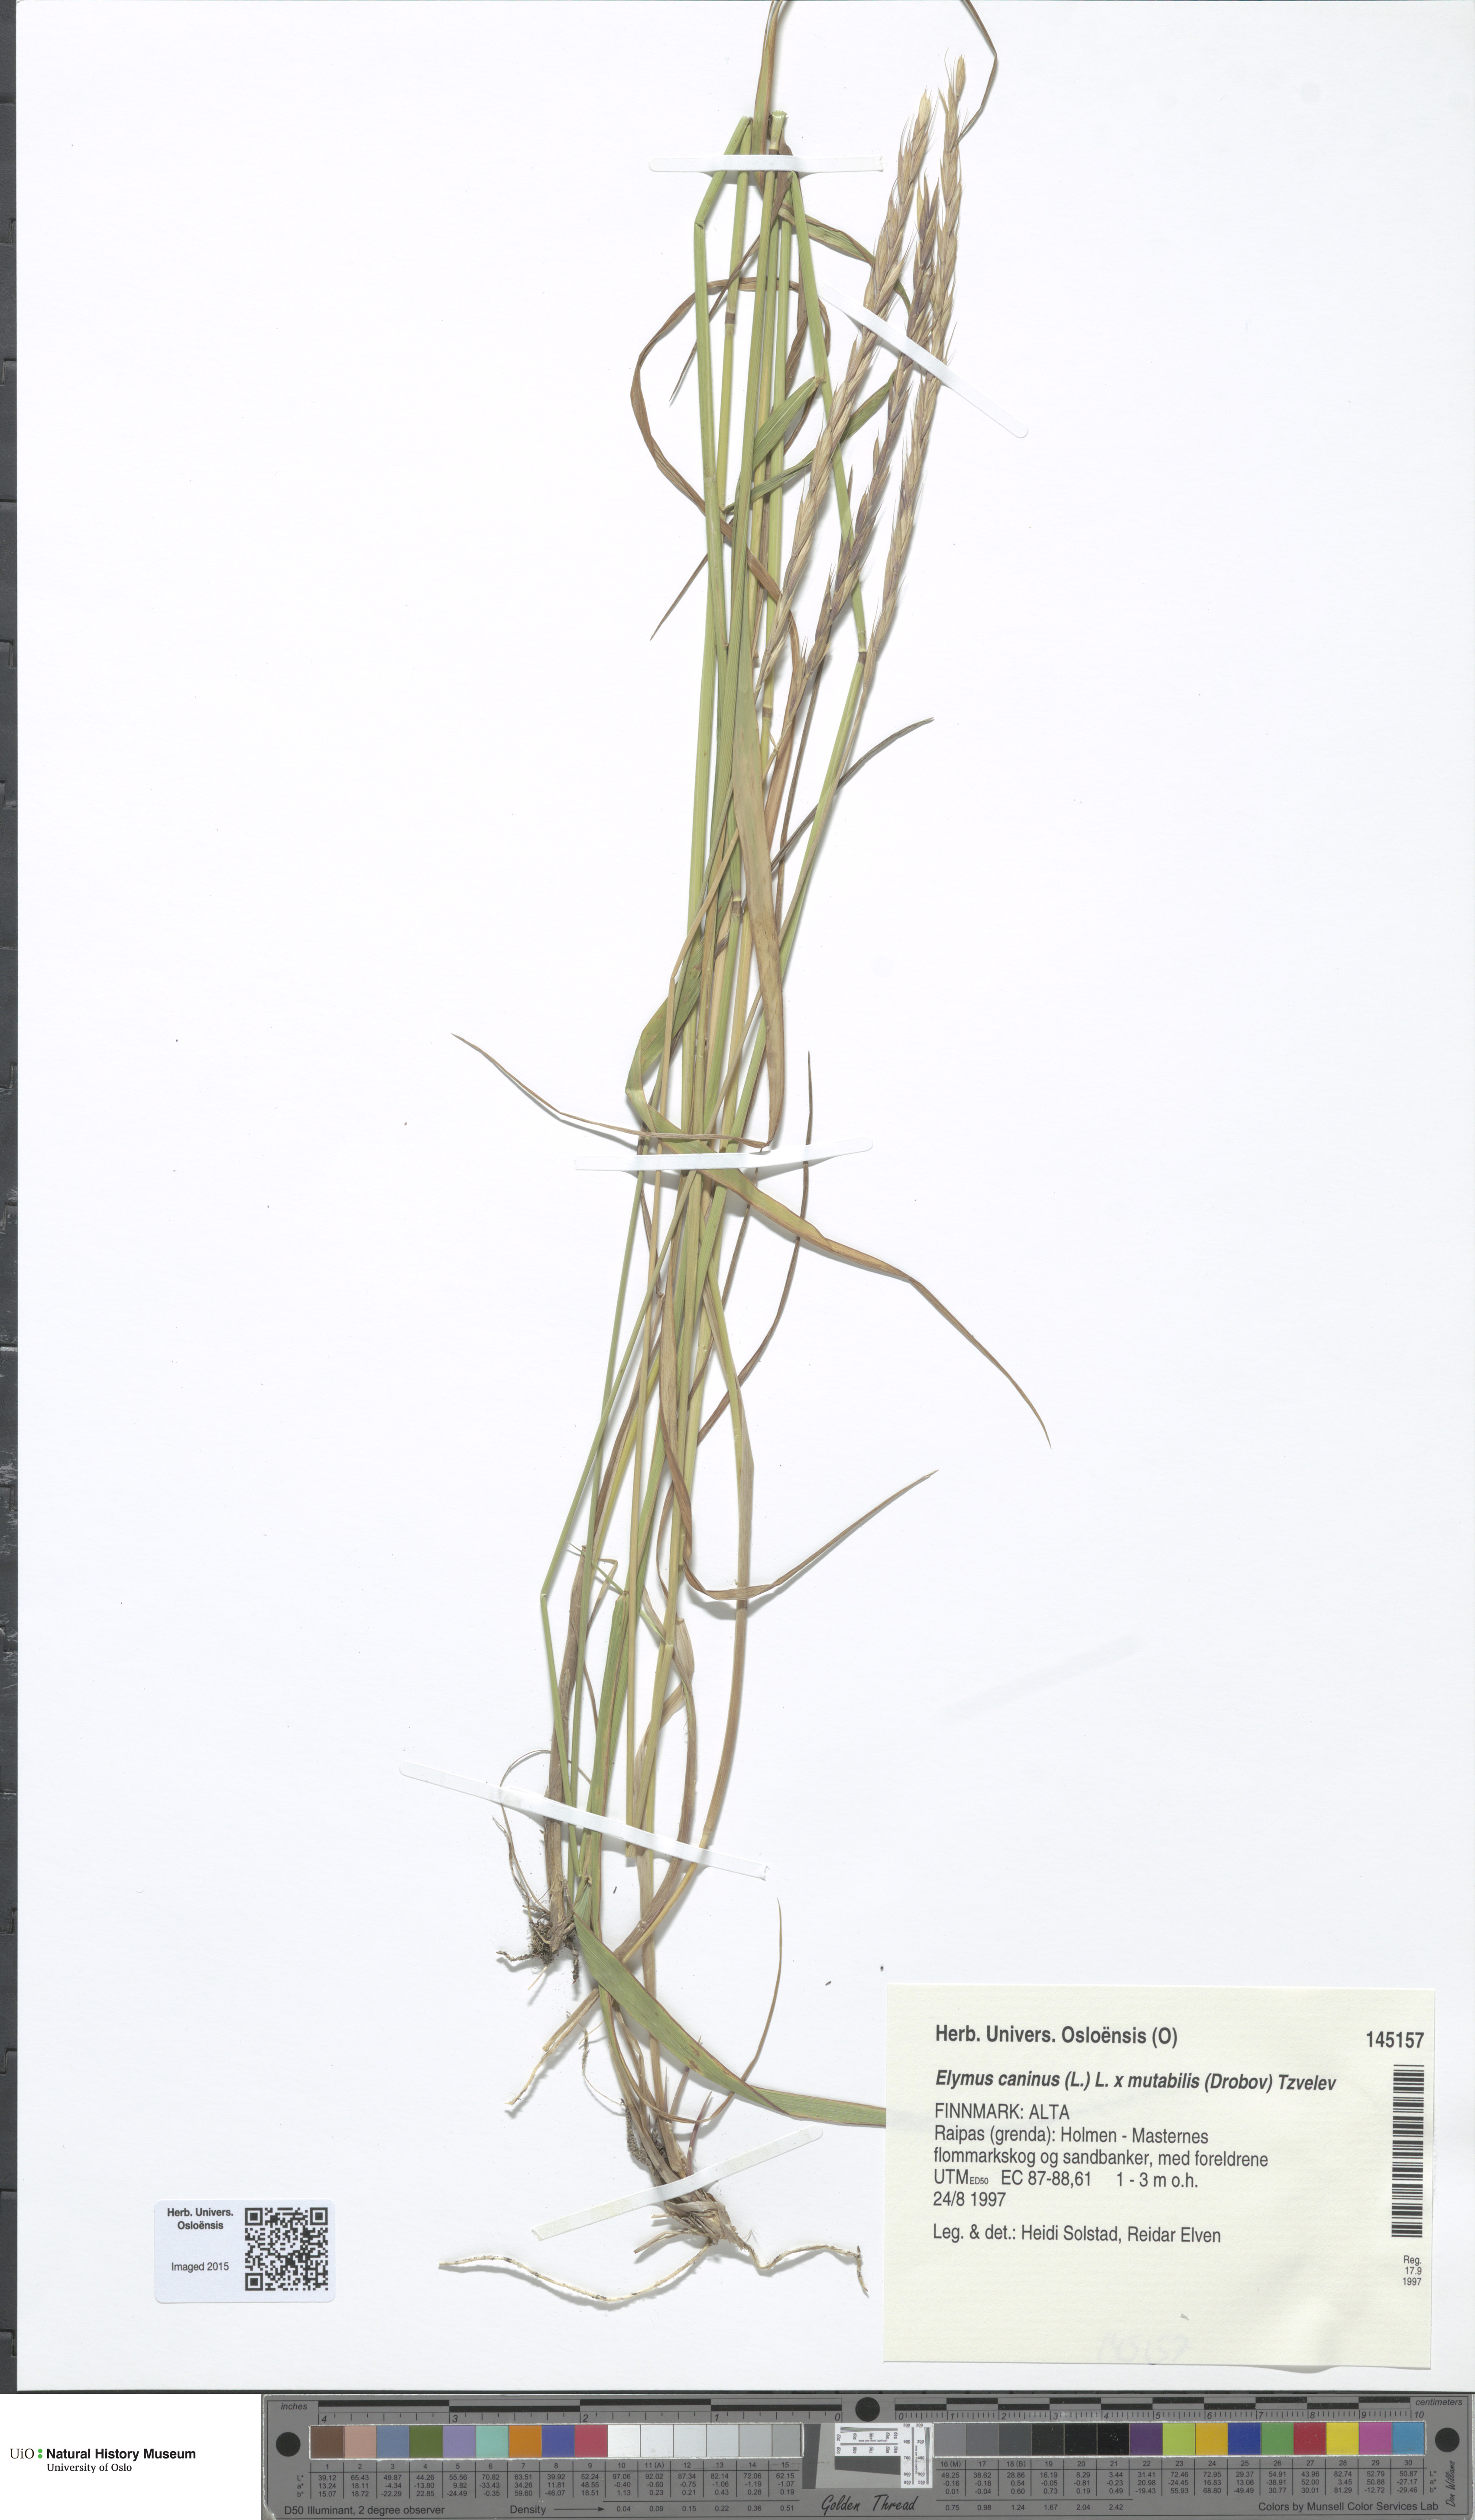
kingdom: Plantae
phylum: Tracheophyta
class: Liliopsida
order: Poales
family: Poaceae
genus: Elymus
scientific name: Elymus
